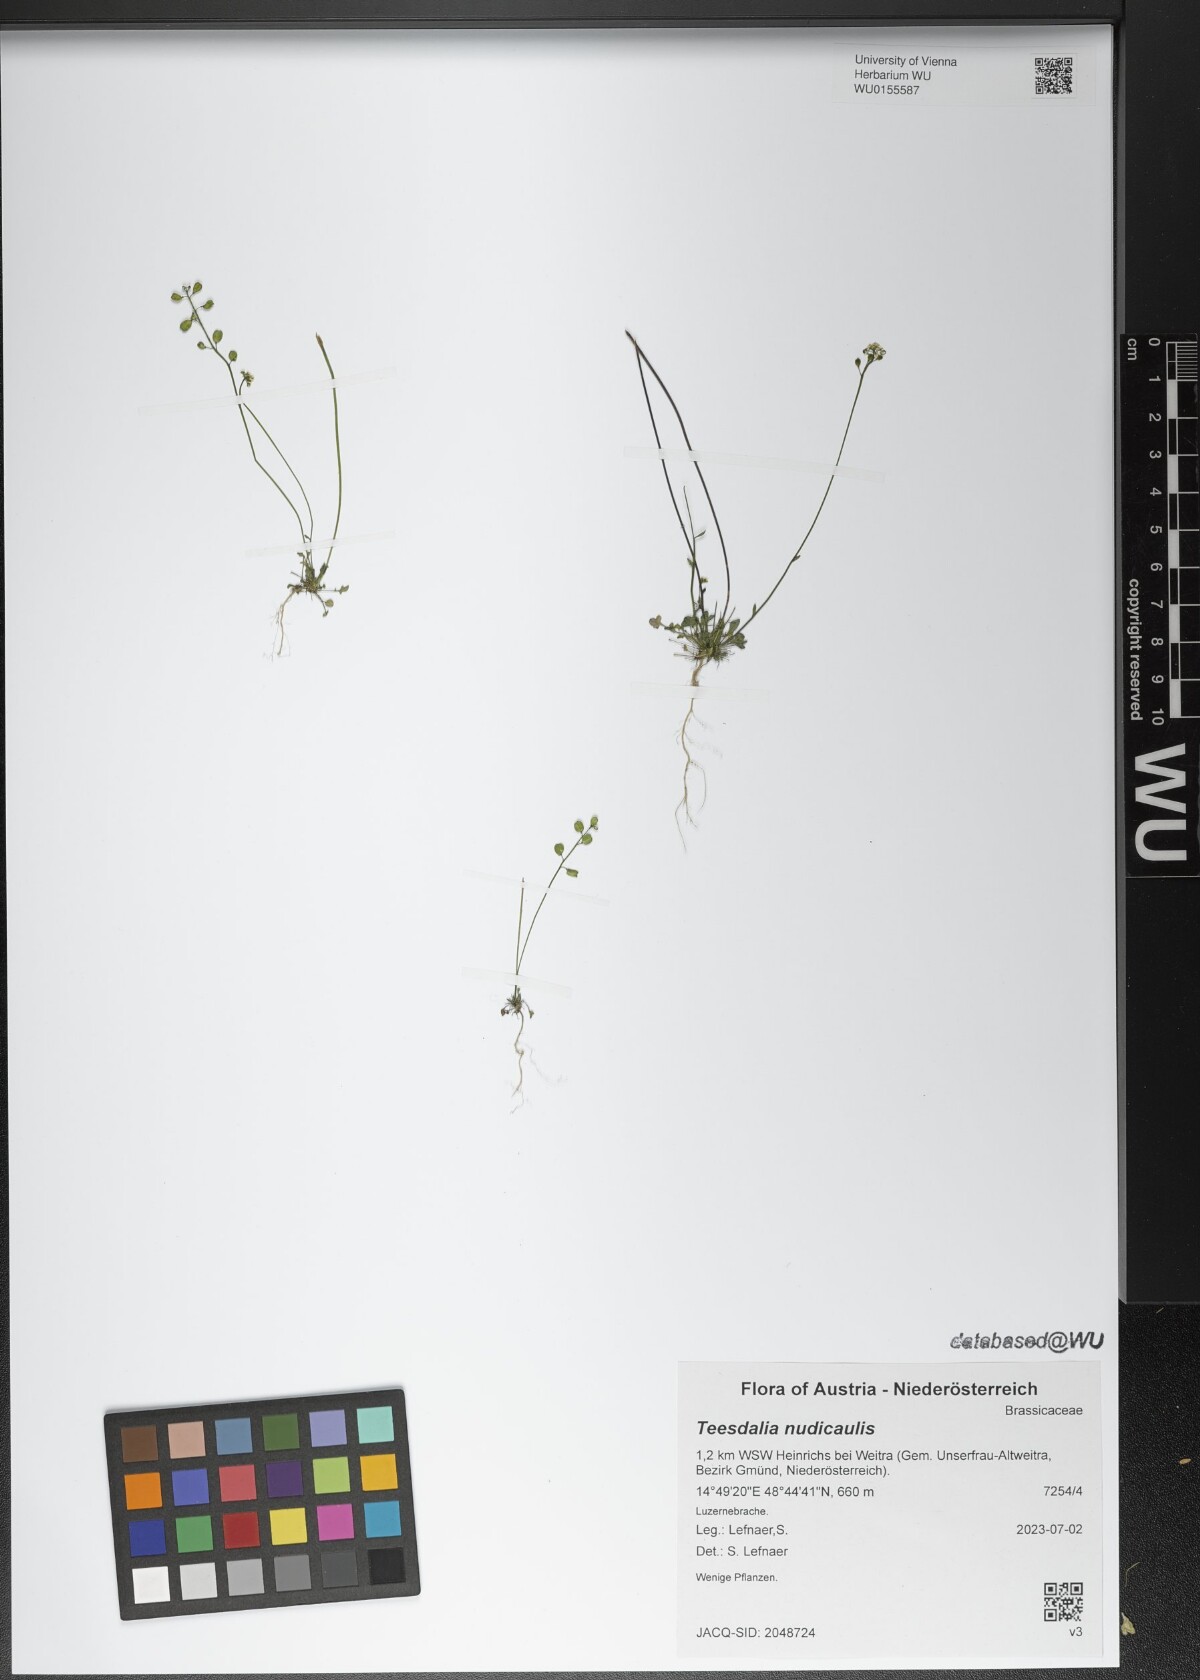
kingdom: Plantae
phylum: Tracheophyta
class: Magnoliopsida
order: Brassicales
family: Brassicaceae
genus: Teesdalia
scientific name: Teesdalia nudicaulis
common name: Shepherd's cress
